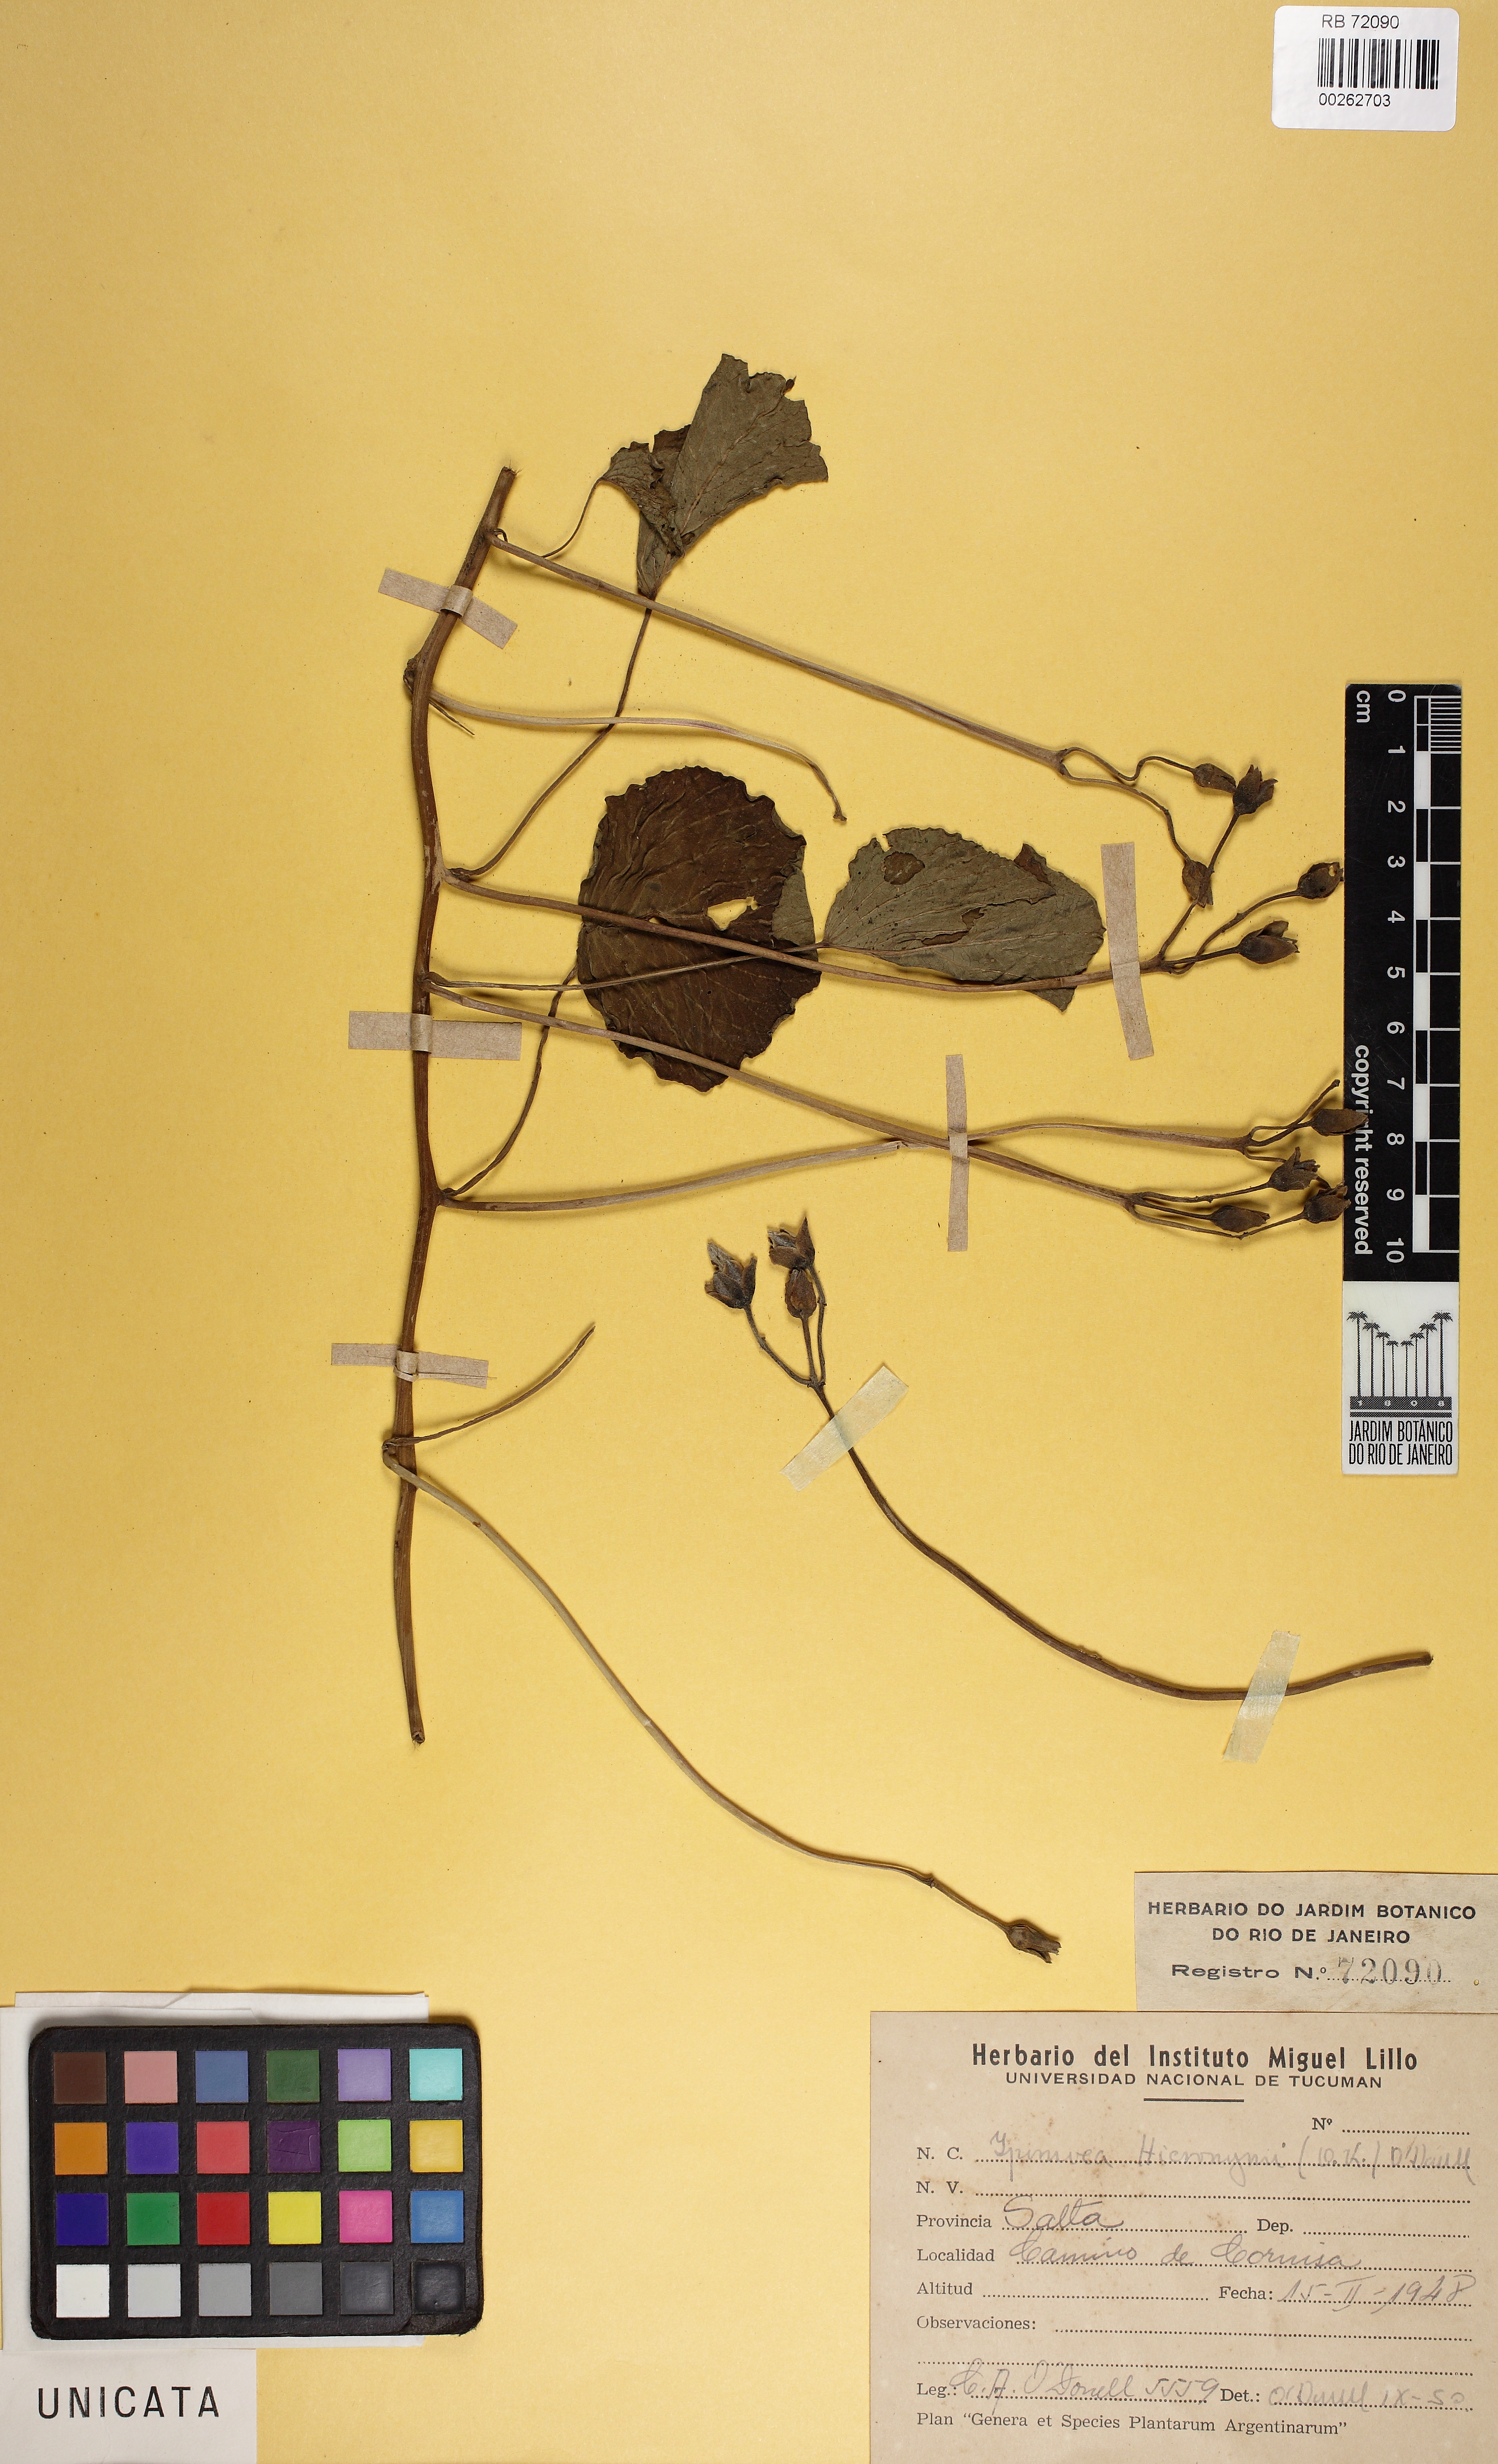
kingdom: Plantae
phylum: Tracheophyta
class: Magnoliopsida
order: Solanales
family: Convolvulaceae
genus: Ipomoea
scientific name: Ipomoea hieronymi
